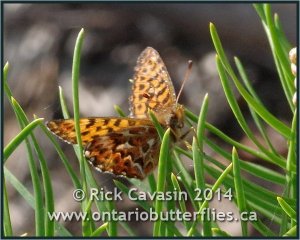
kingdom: Animalia
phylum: Arthropoda
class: Insecta
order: Lepidoptera
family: Nymphalidae
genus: Boloria
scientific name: Boloria freija
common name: Freija Fritillary
